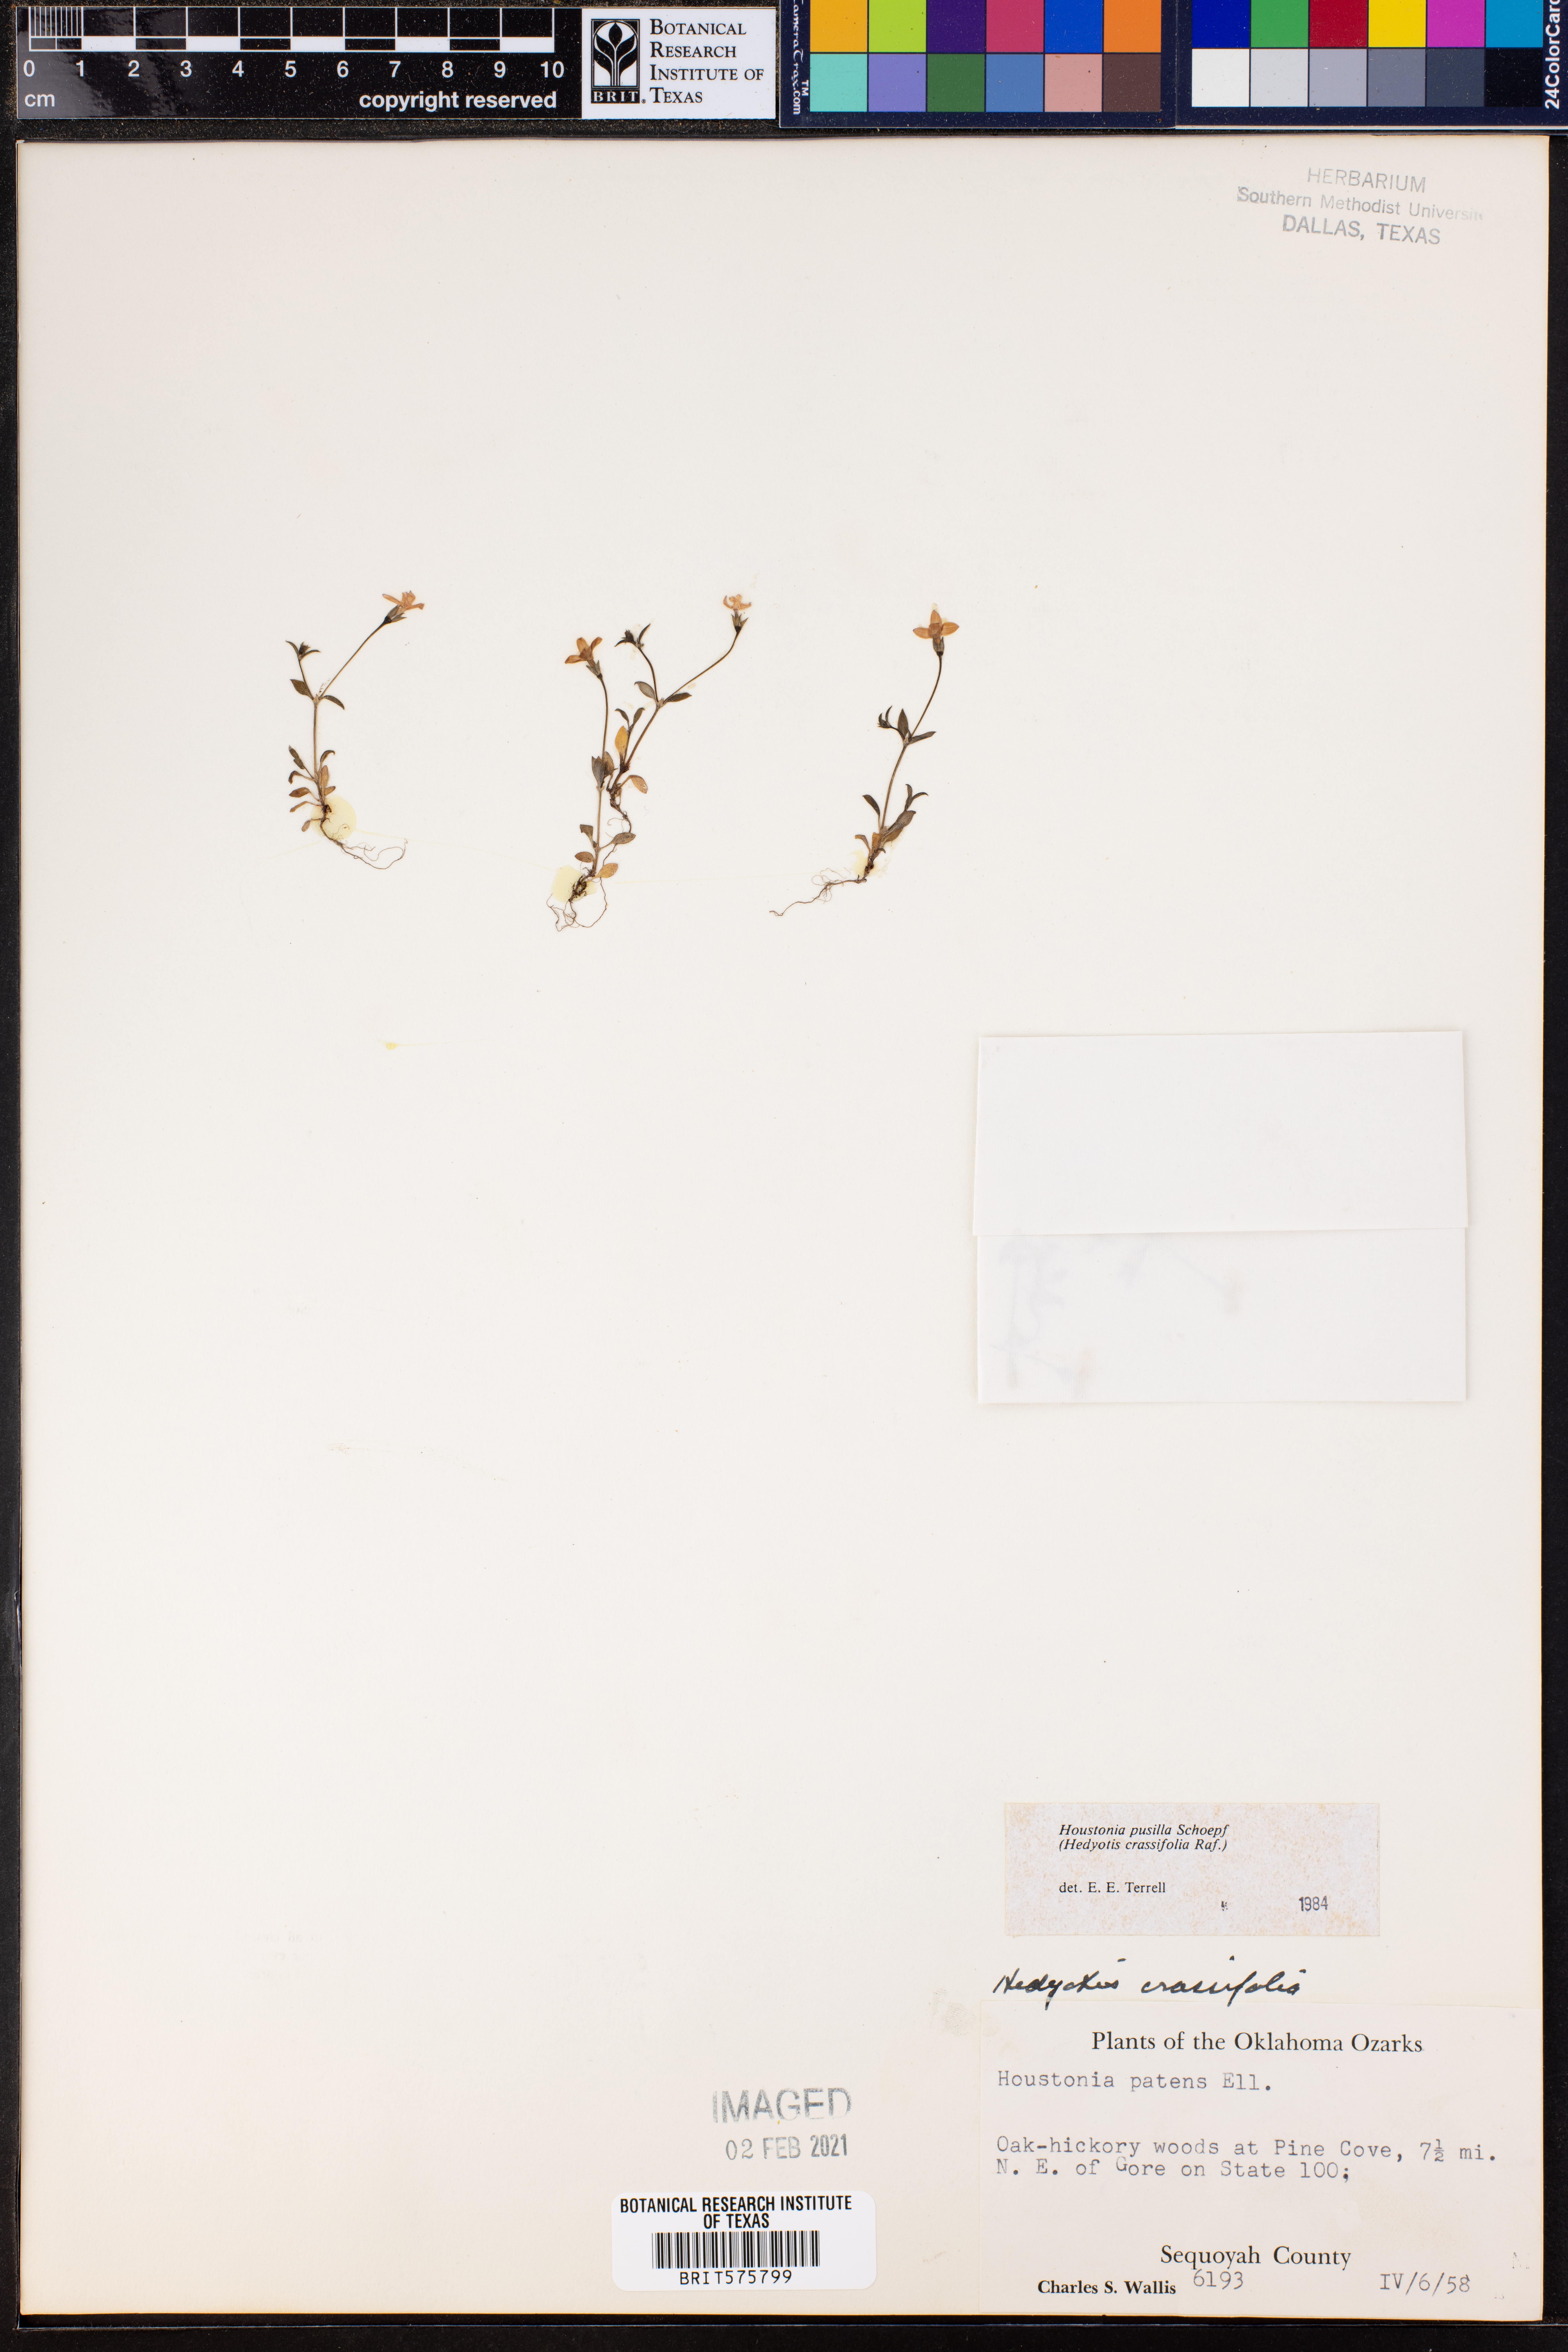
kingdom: Plantae
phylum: Tracheophyta
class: Magnoliopsida
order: Gentianales
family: Rubiaceae
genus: Houstonia
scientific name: Houstonia pusilla
